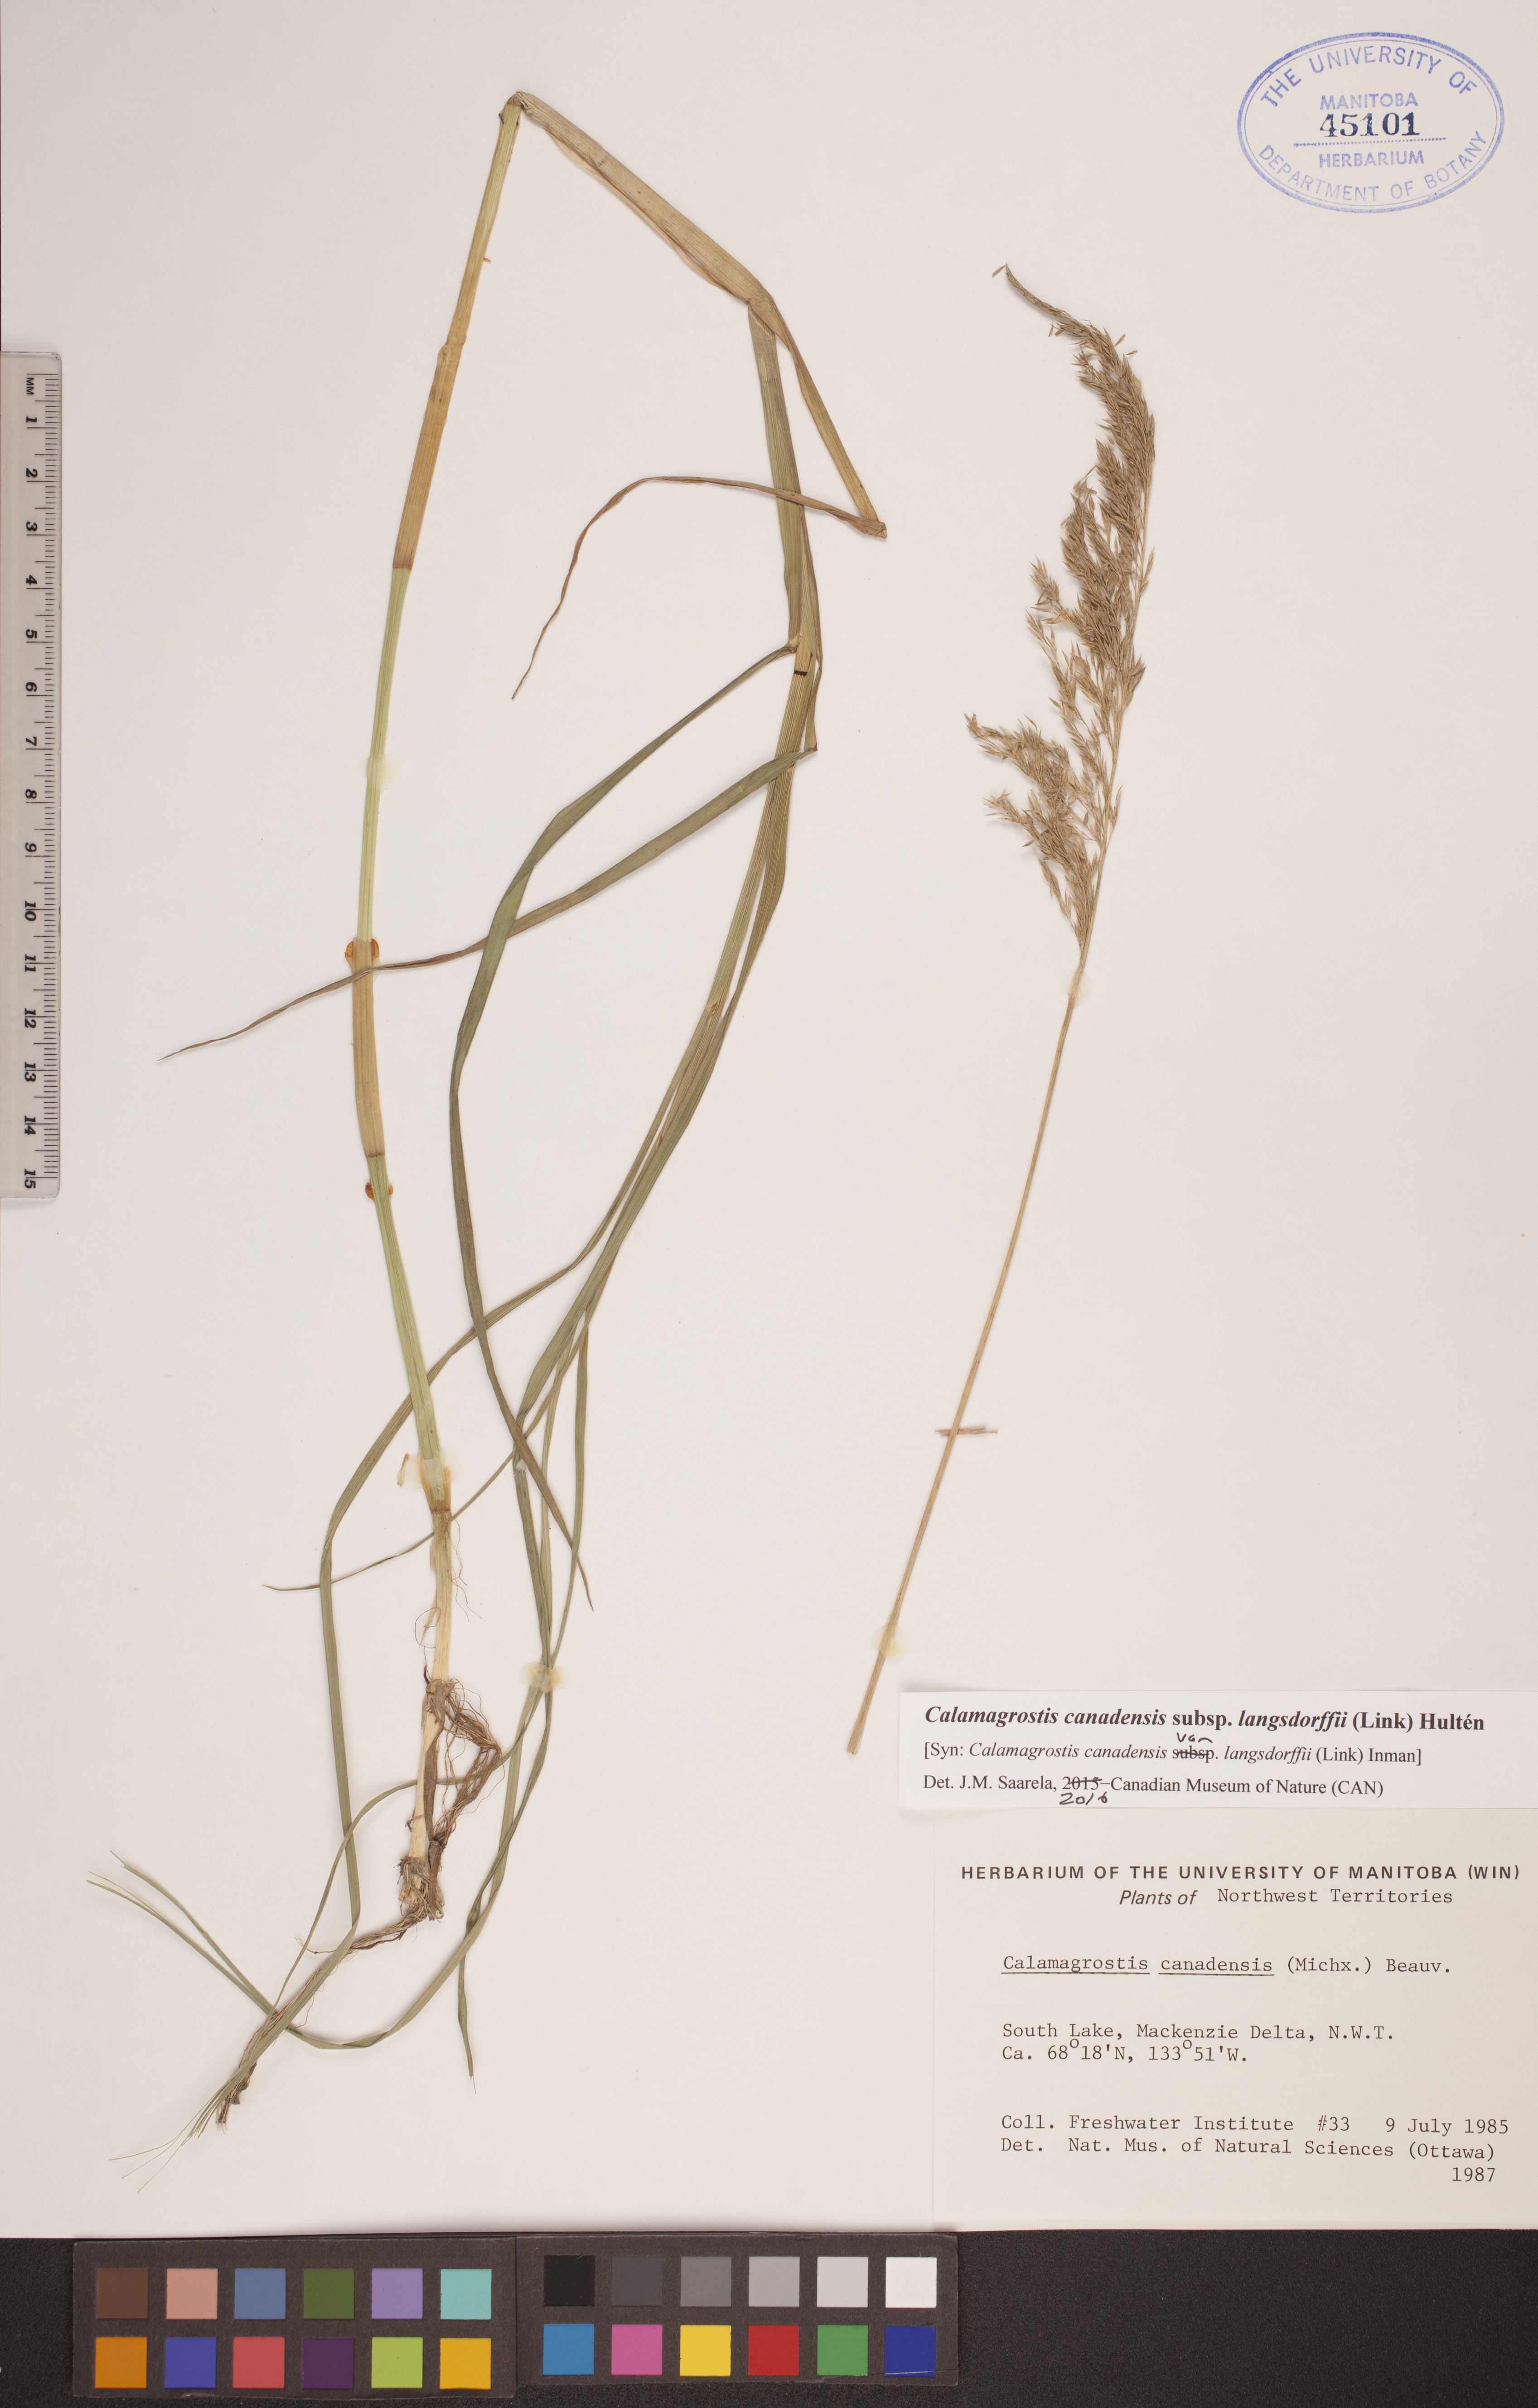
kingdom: Plantae
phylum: Tracheophyta
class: Liliopsida
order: Poales
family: Poaceae
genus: Calamagrostis
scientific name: Calamagrostis purpurea
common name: Scandinavian small-reed
